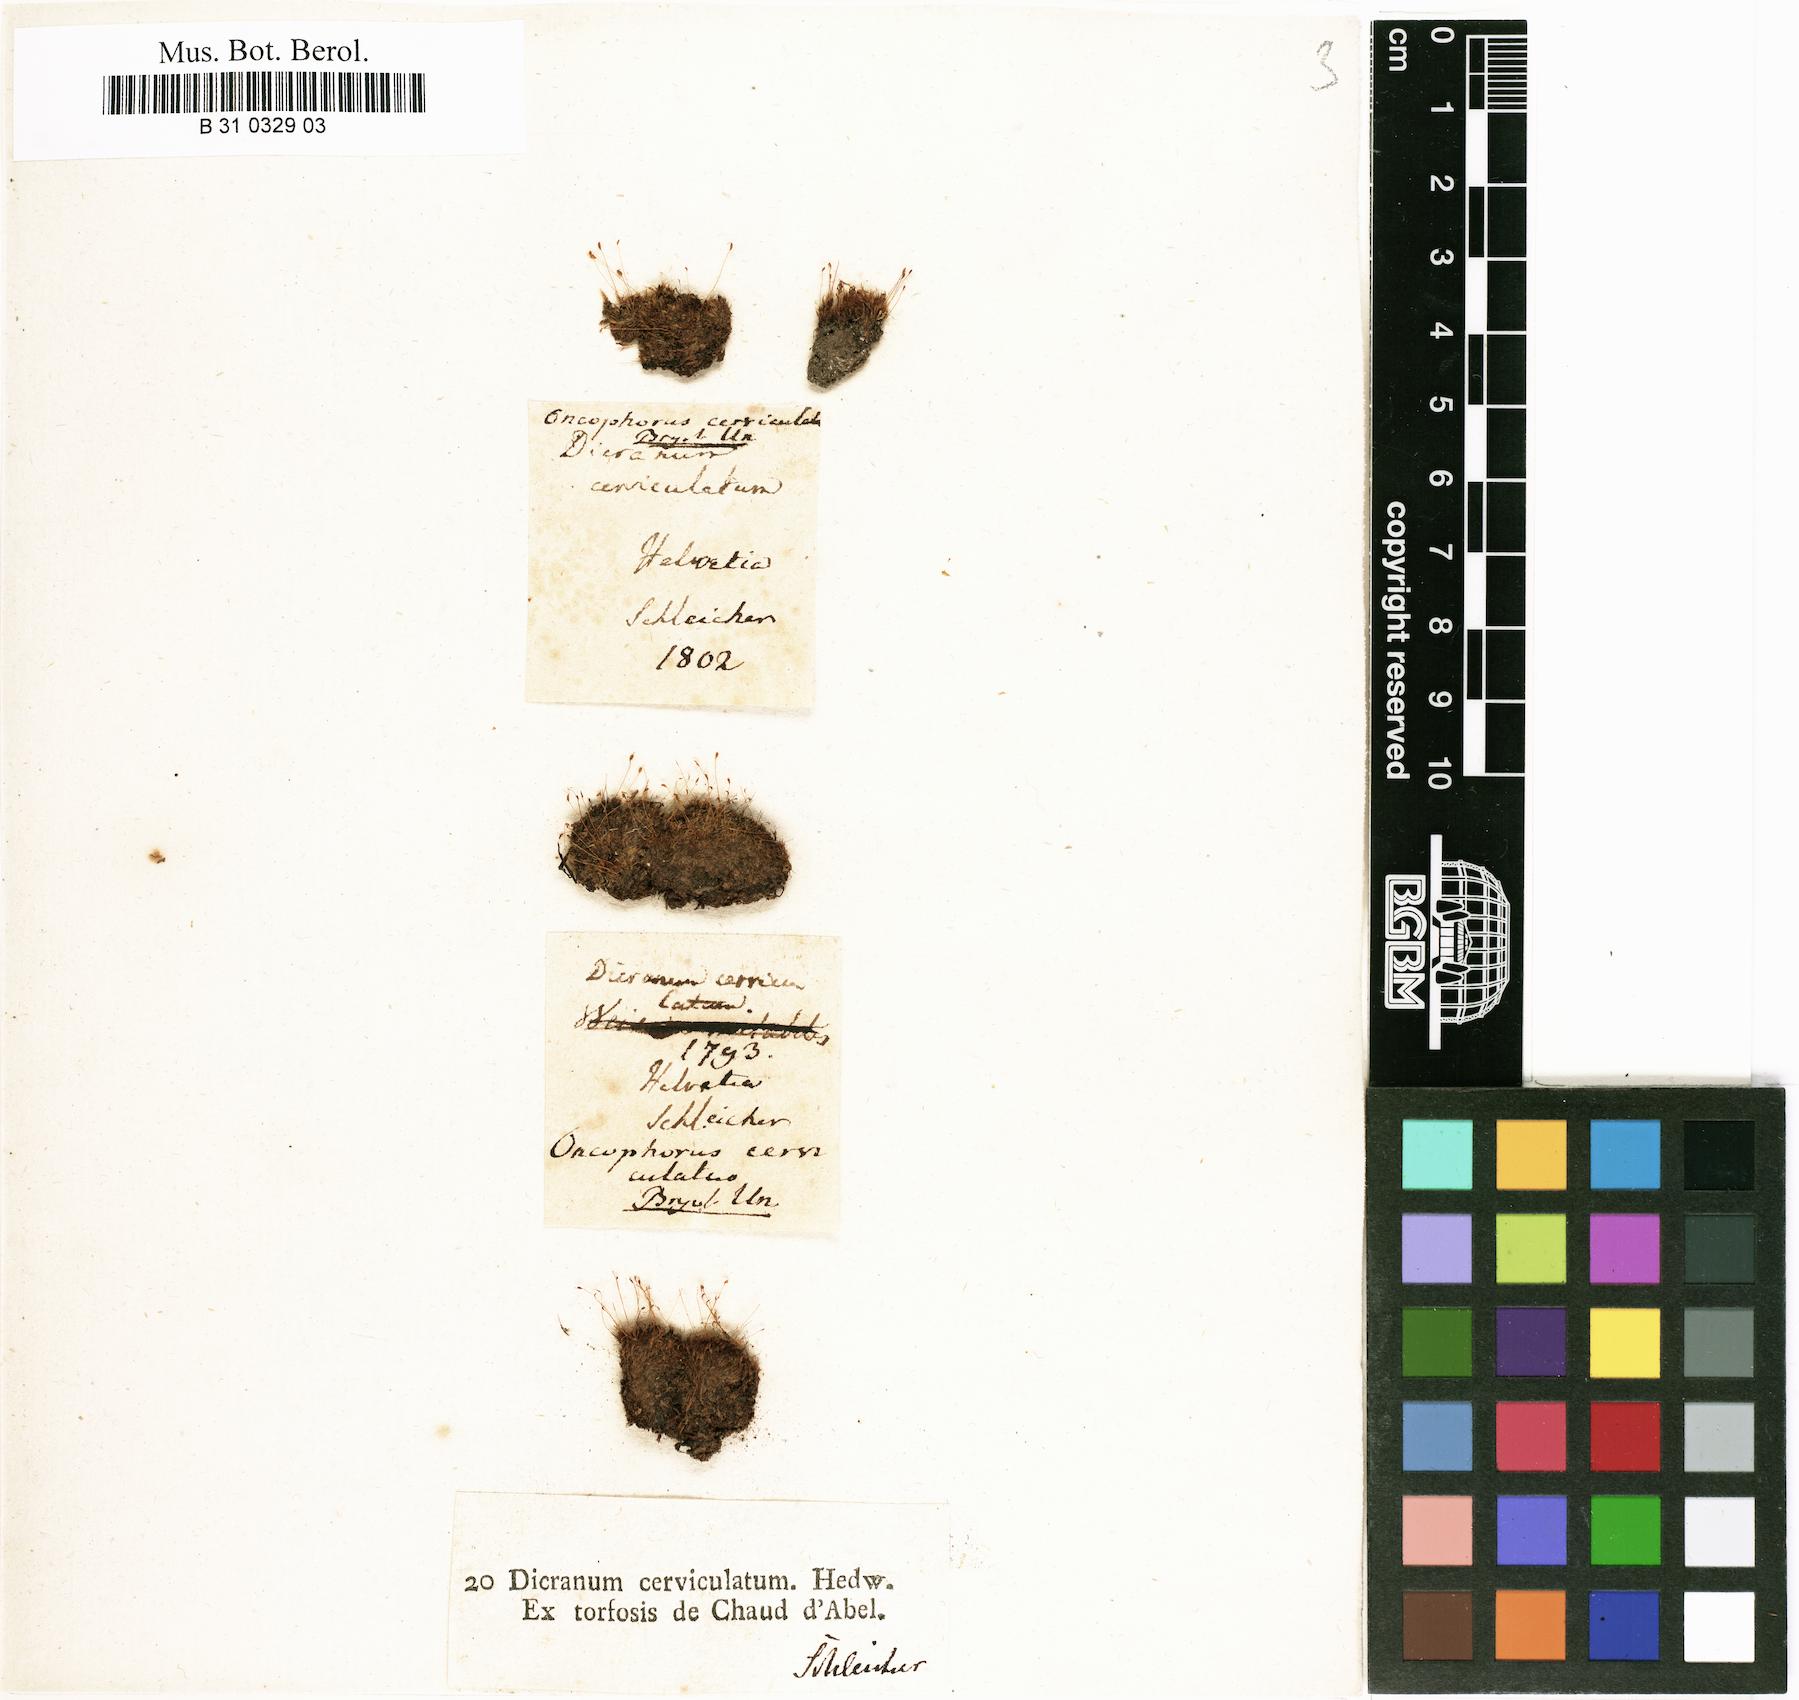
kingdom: Plantae
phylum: Bryophyta
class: Bryopsida
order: Dicranales
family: Dicranellaceae
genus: Dicranella
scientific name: Dicranella cerviculata
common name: Spur-necked forklet moss
